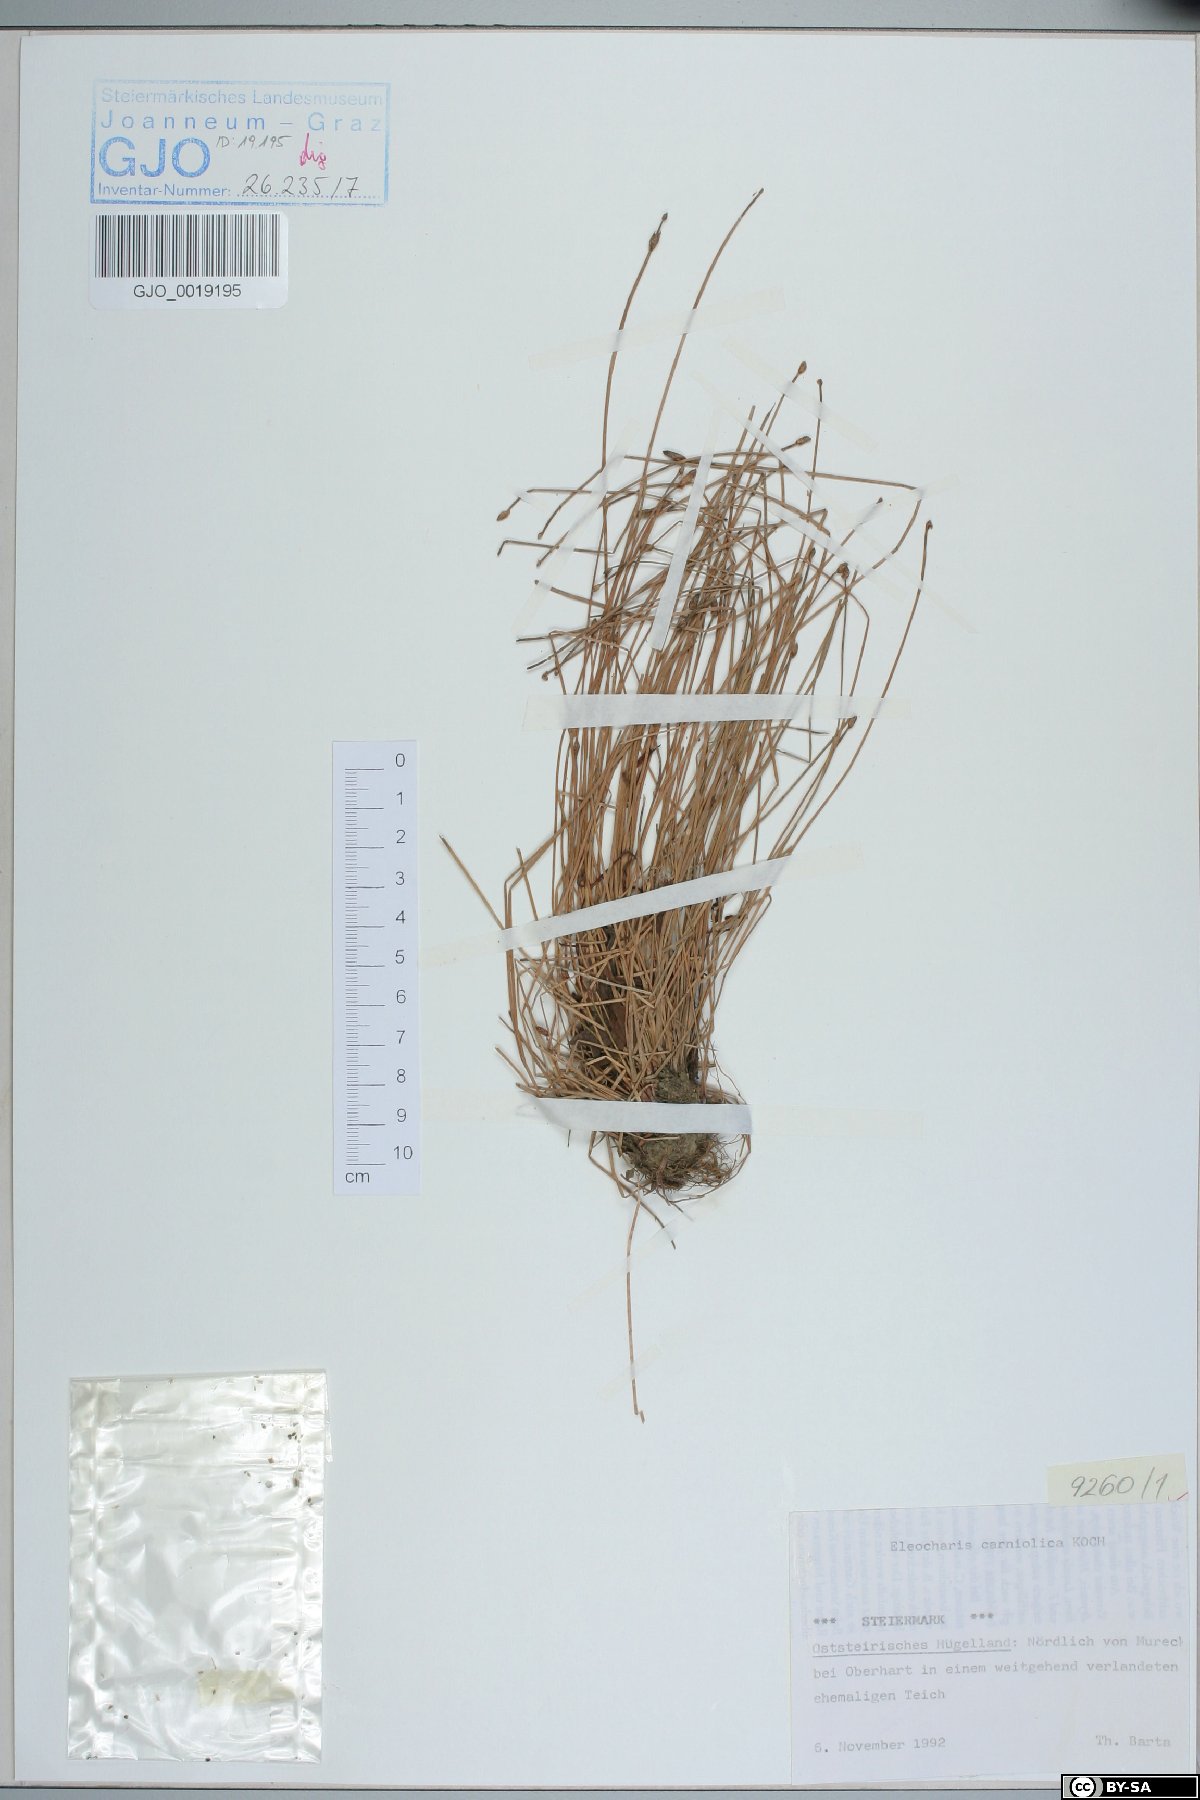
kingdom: Plantae
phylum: Tracheophyta
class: Liliopsida
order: Poales
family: Cyperaceae
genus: Eleocharis
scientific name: Eleocharis carniolica
